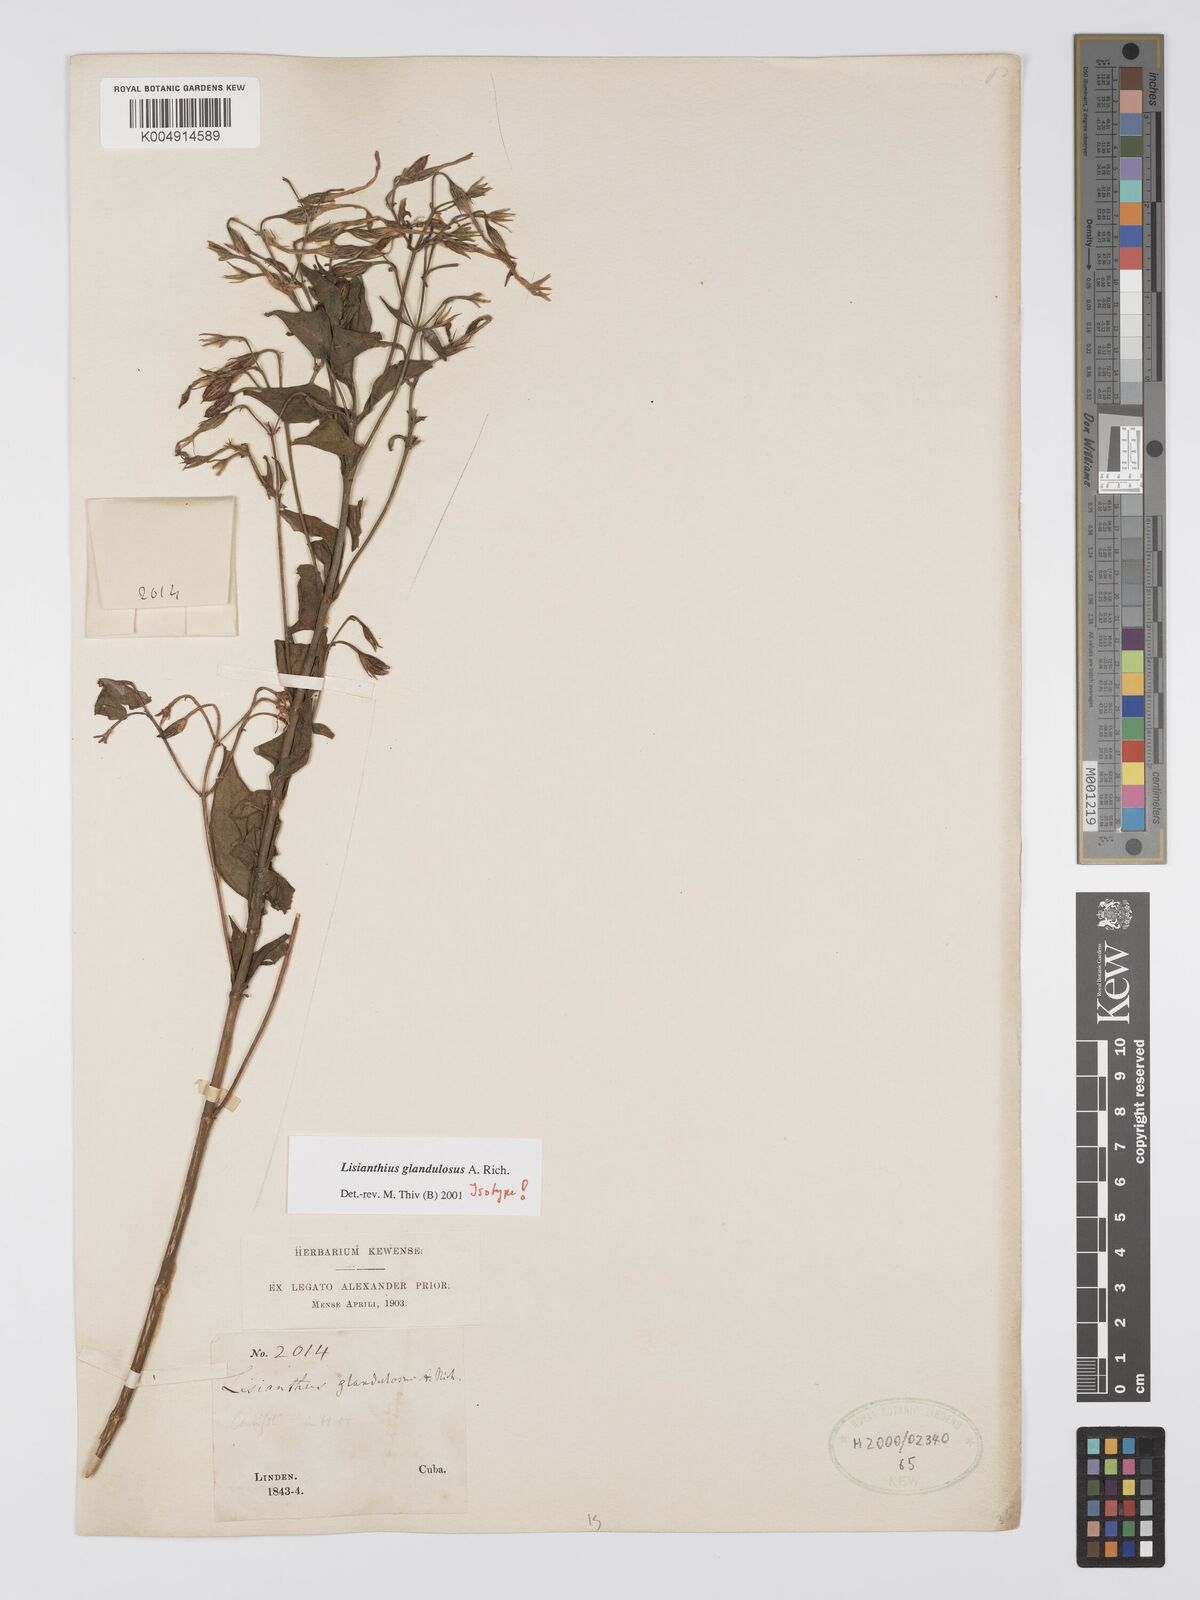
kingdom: Plantae
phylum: Tracheophyta
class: Magnoliopsida
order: Gentianales
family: Gentianaceae
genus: Lisianthus
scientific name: Lisianthus glandulosus
